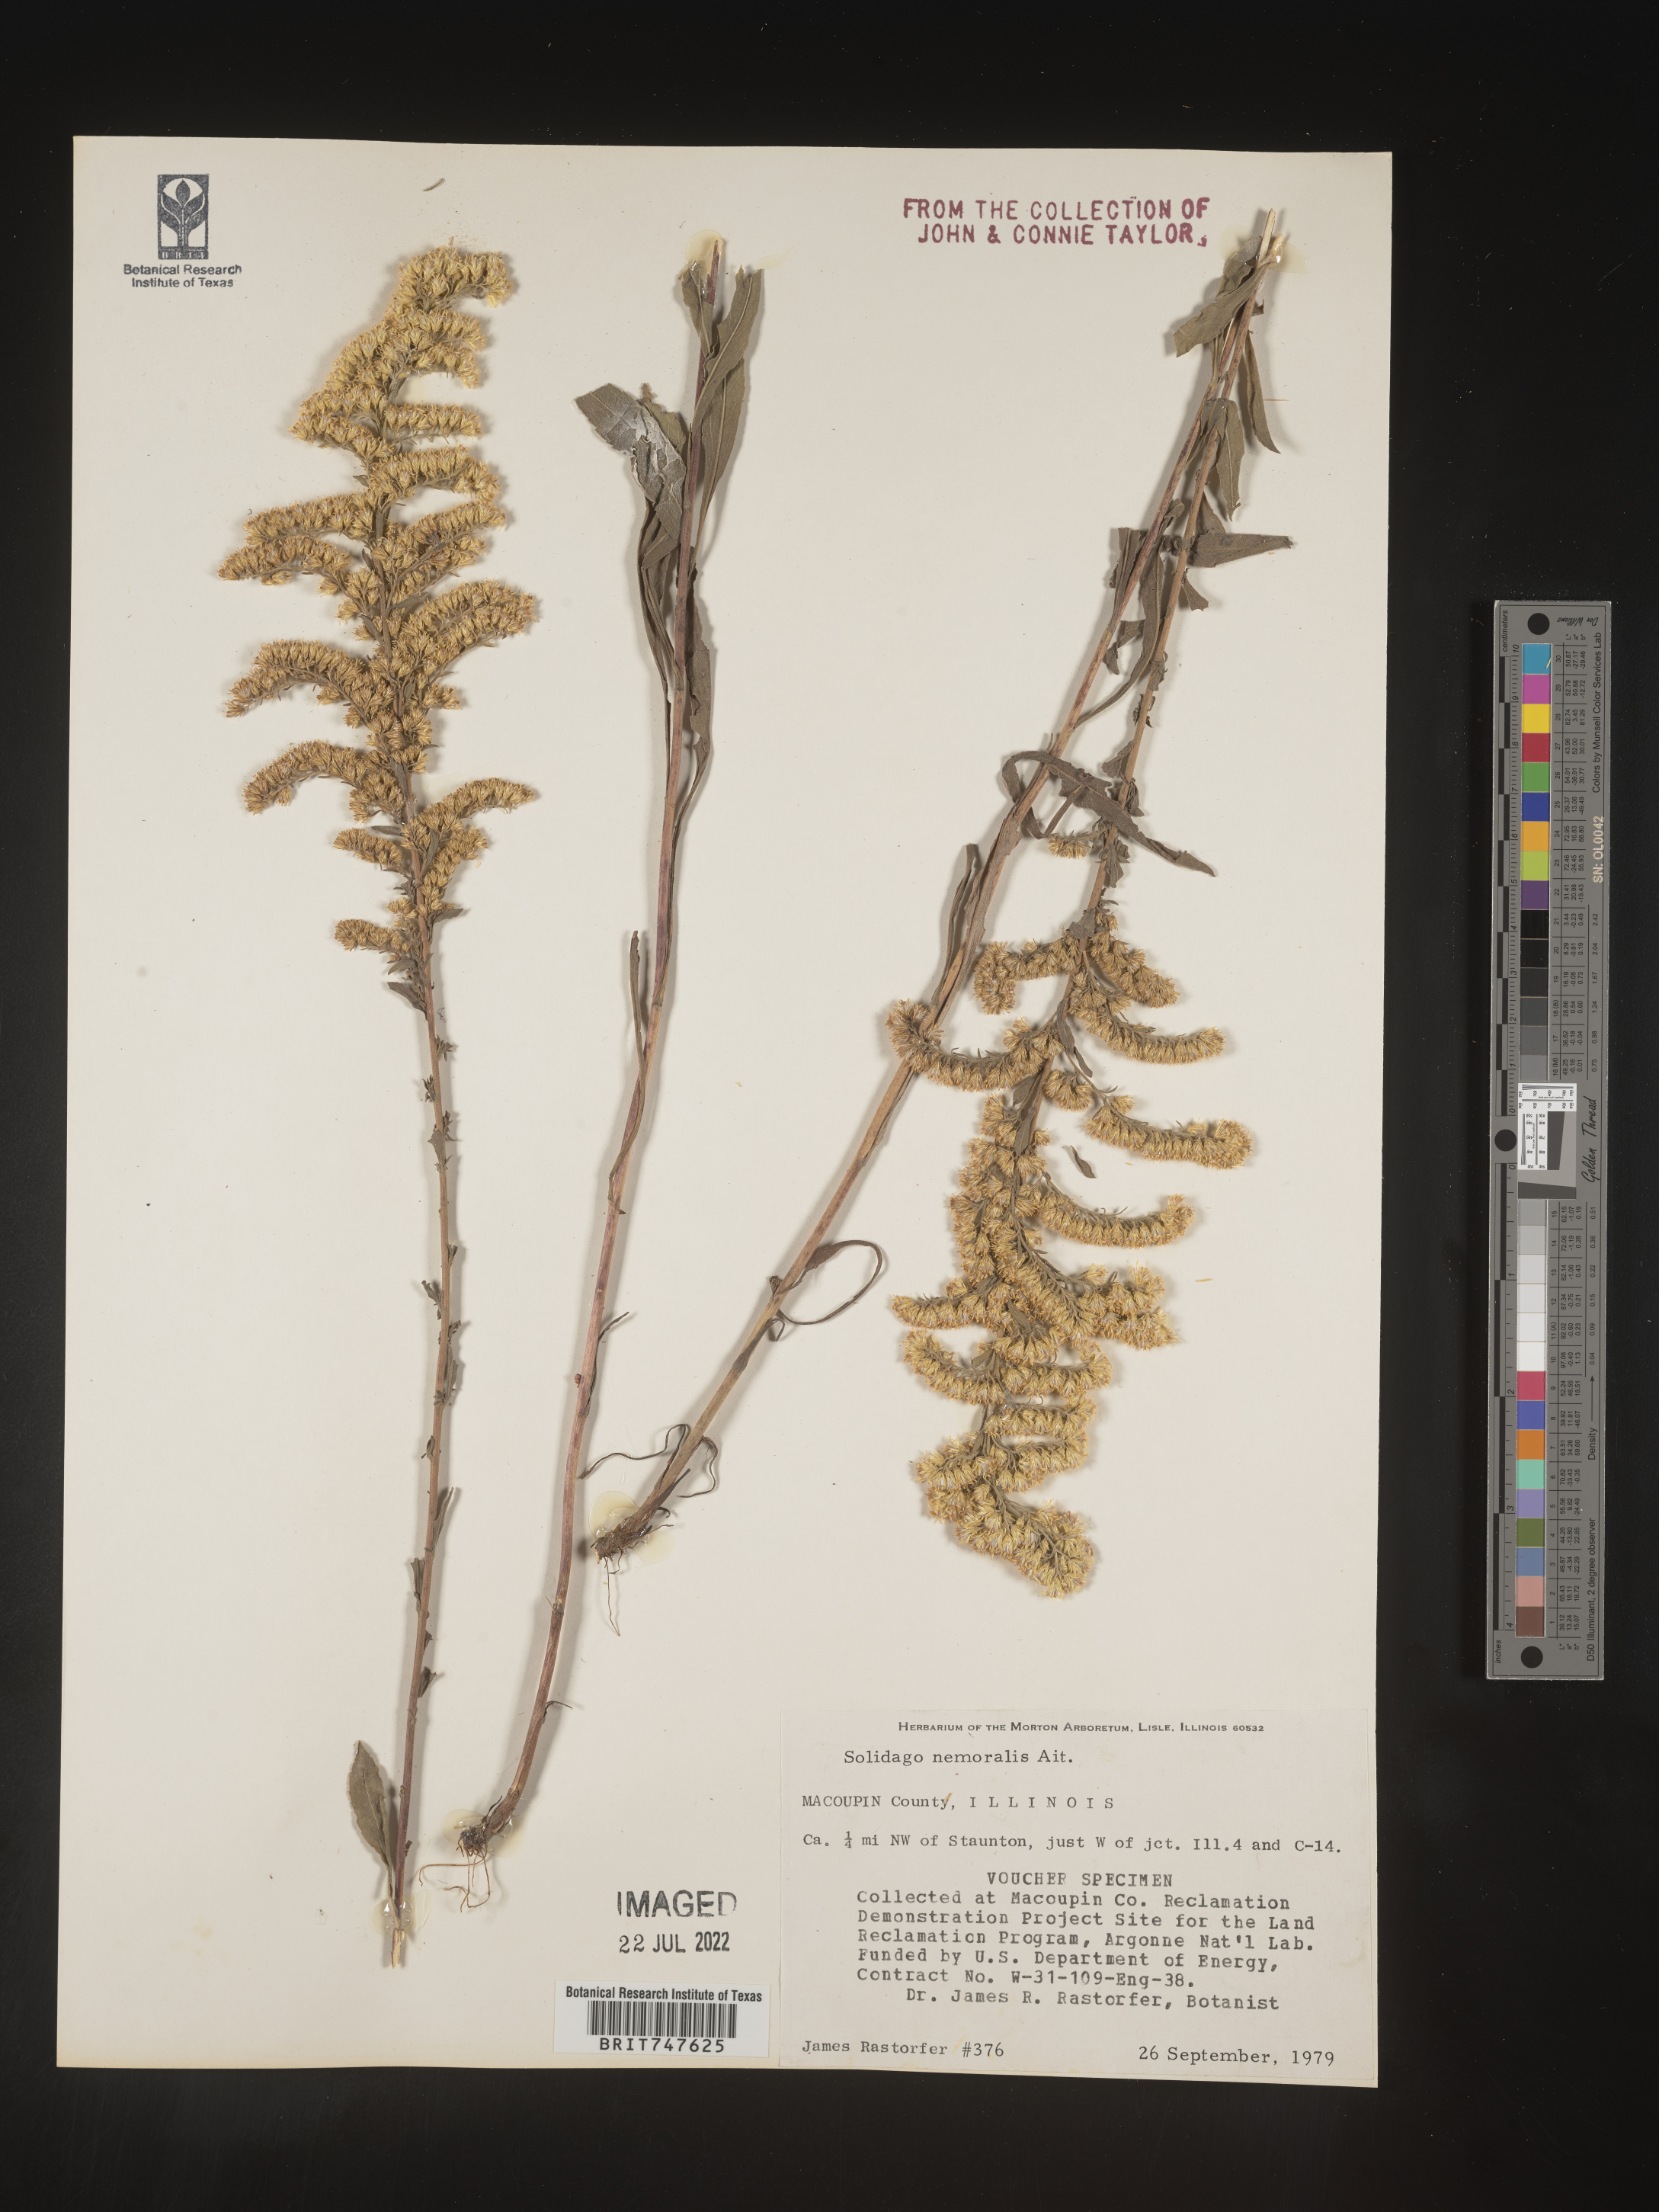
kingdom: Plantae
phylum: Tracheophyta
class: Magnoliopsida
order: Asterales
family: Asteraceae
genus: Solidago
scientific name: Solidago nemoralis
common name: Grey goldenrod
